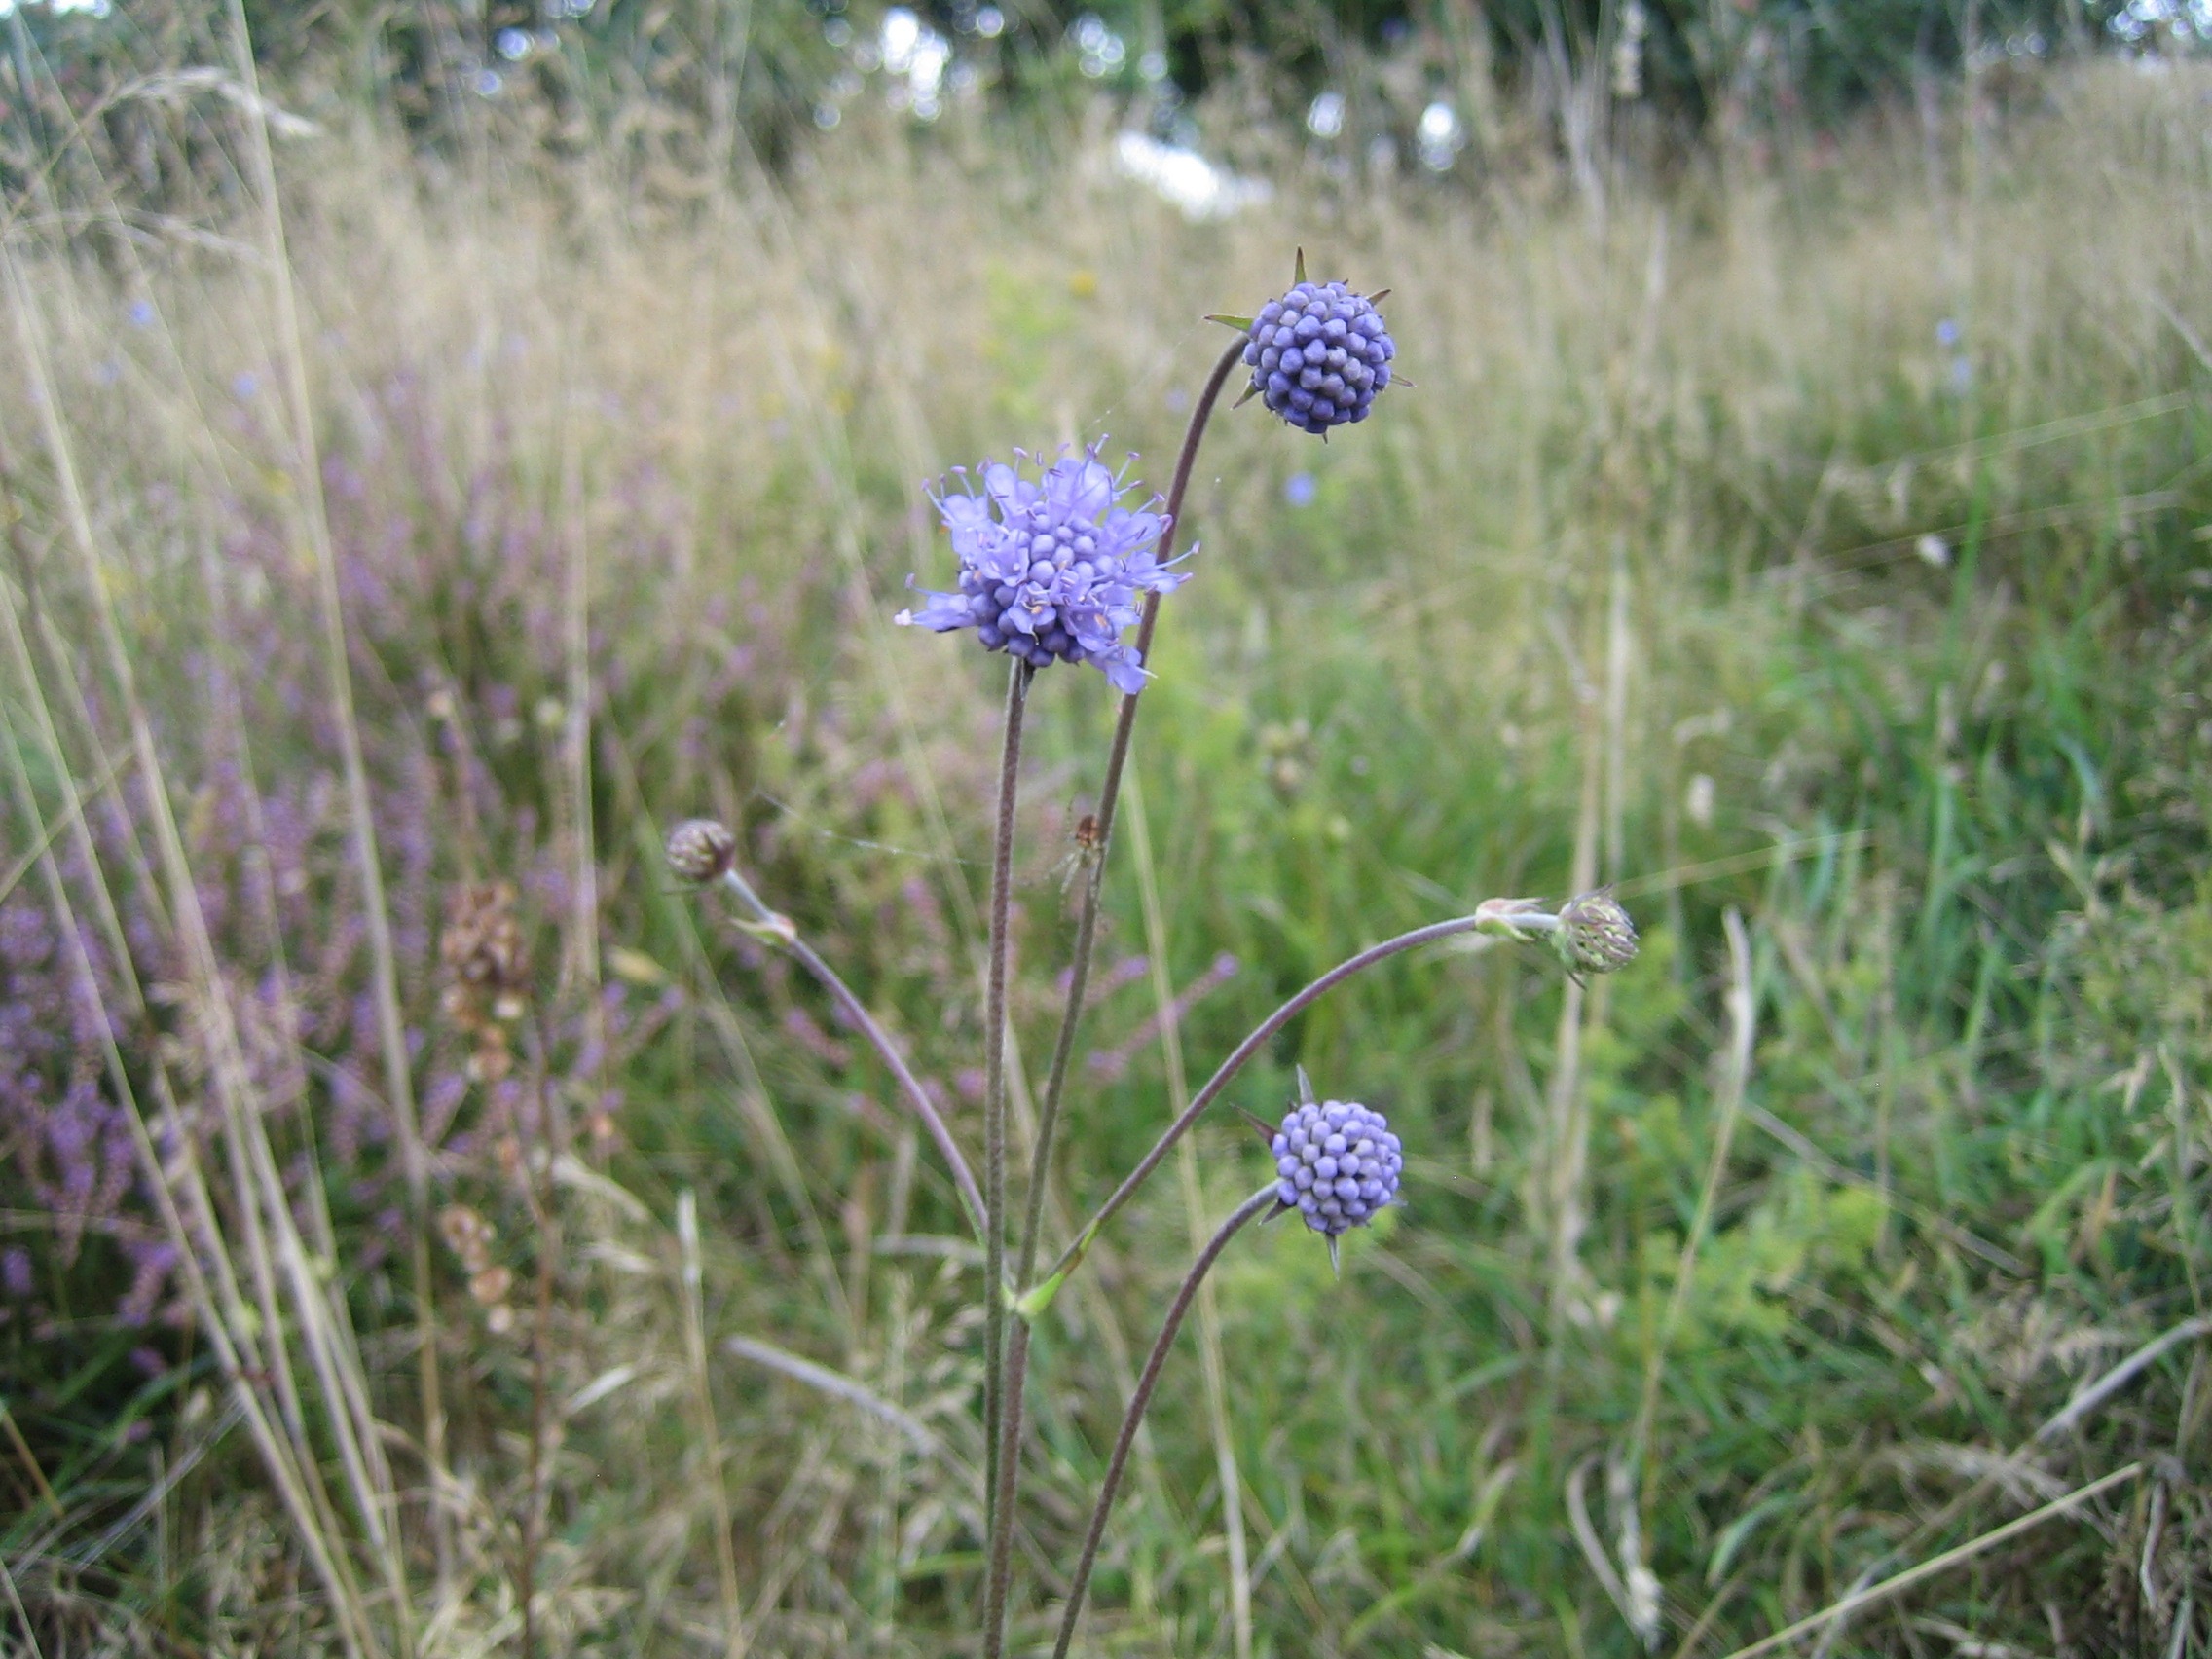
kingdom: Plantae
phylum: Tracheophyta
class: Magnoliopsida
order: Dipsacales
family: Caprifoliaceae
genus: Succisa
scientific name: Succisa pratensis
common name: Djævelsbid
